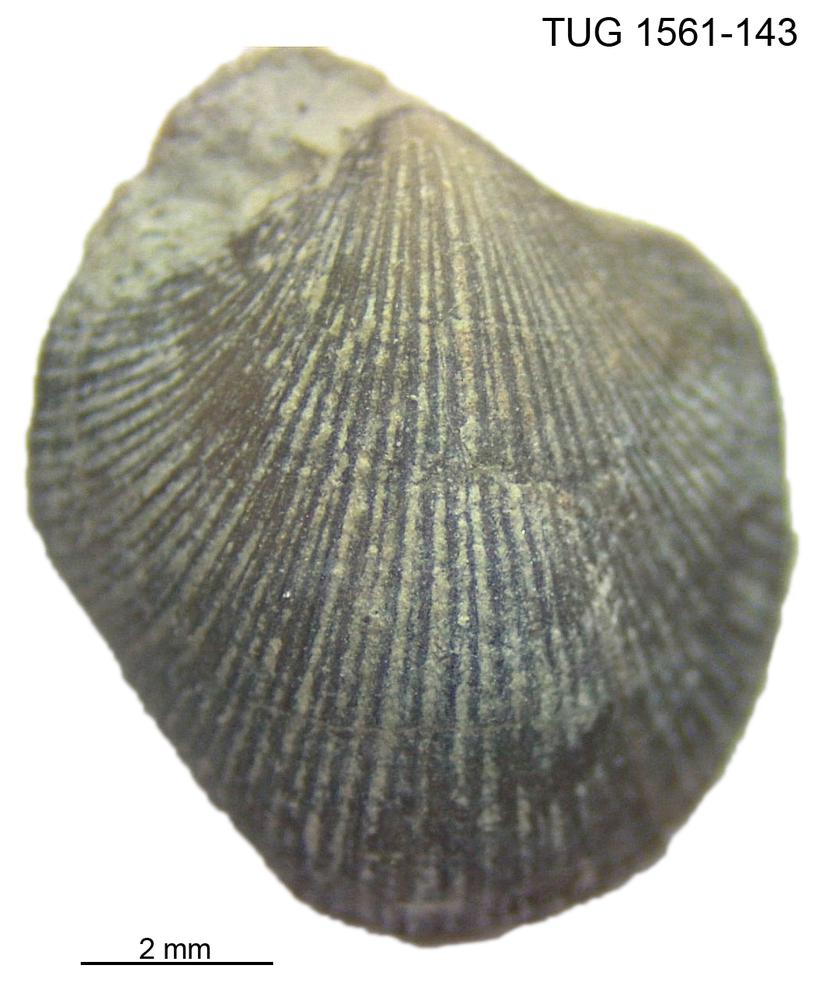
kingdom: Animalia
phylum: Brachiopoda
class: Rhynchonellata
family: Dalmanellidae
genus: Isorthis
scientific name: Isorthis
